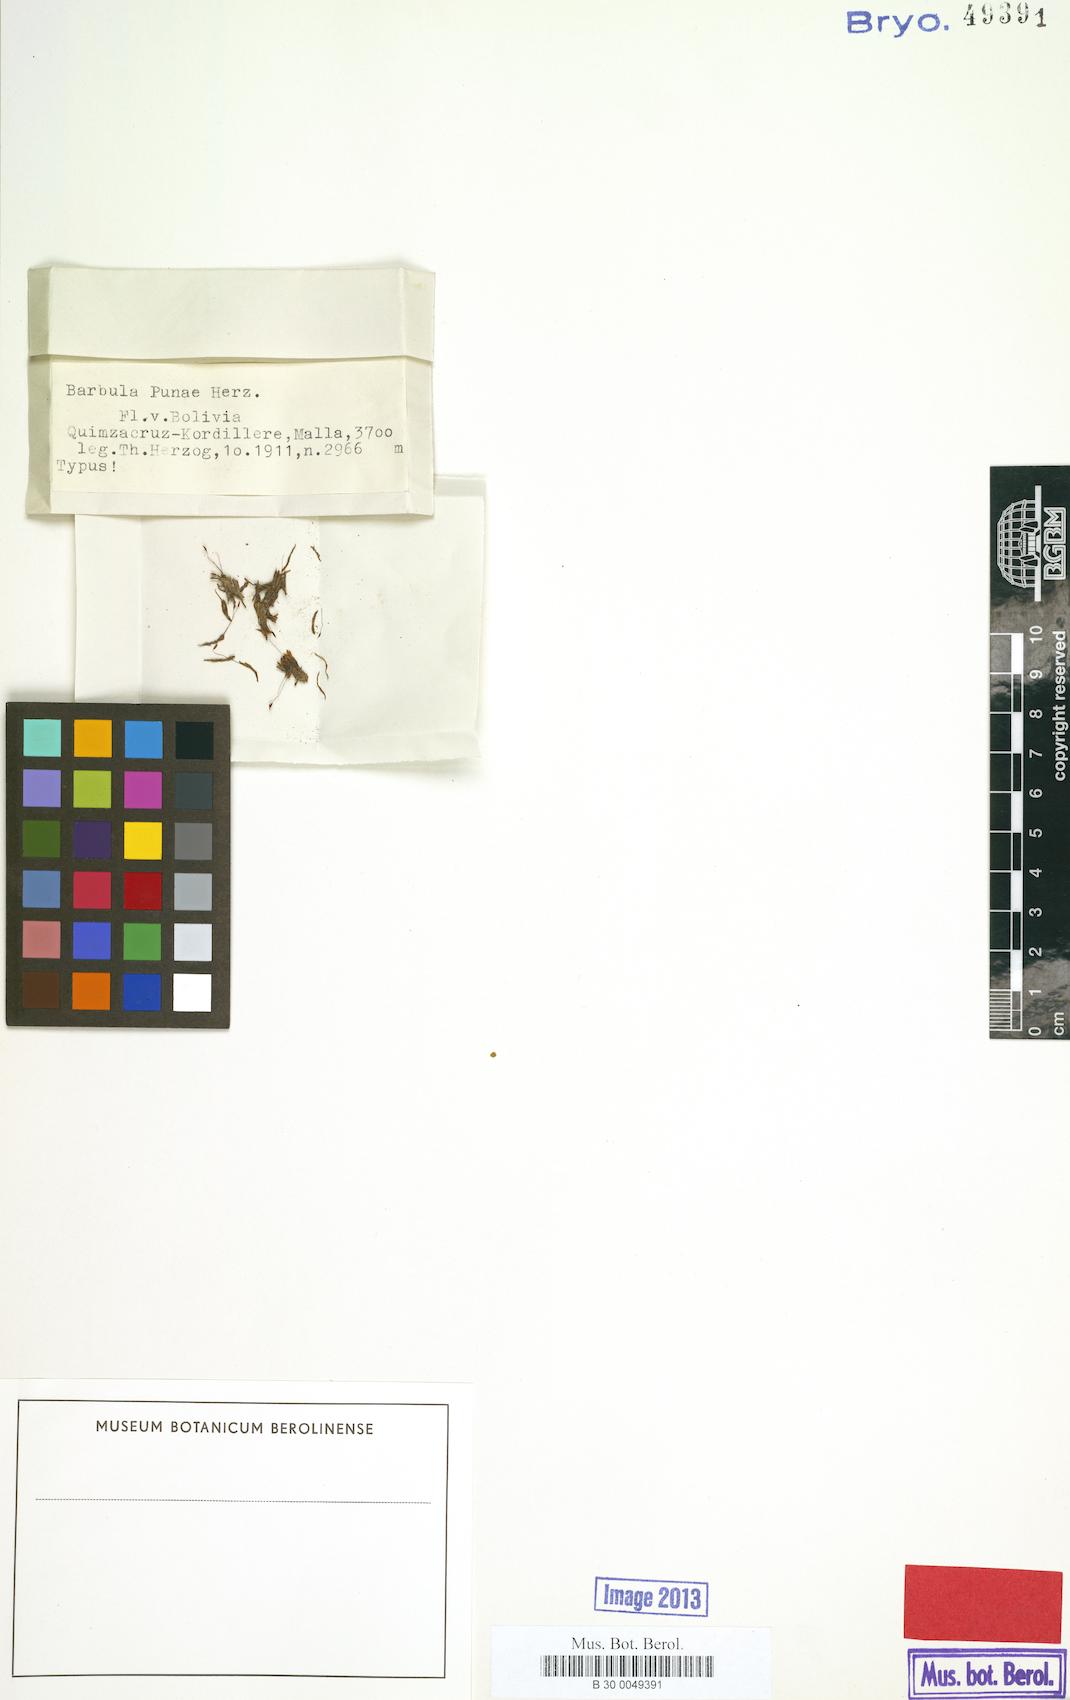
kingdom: Plantae
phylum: Bryophyta
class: Bryopsida
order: Pottiales
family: Pottiaceae
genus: Gertrudiella
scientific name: Gertrudiella glaucescens
